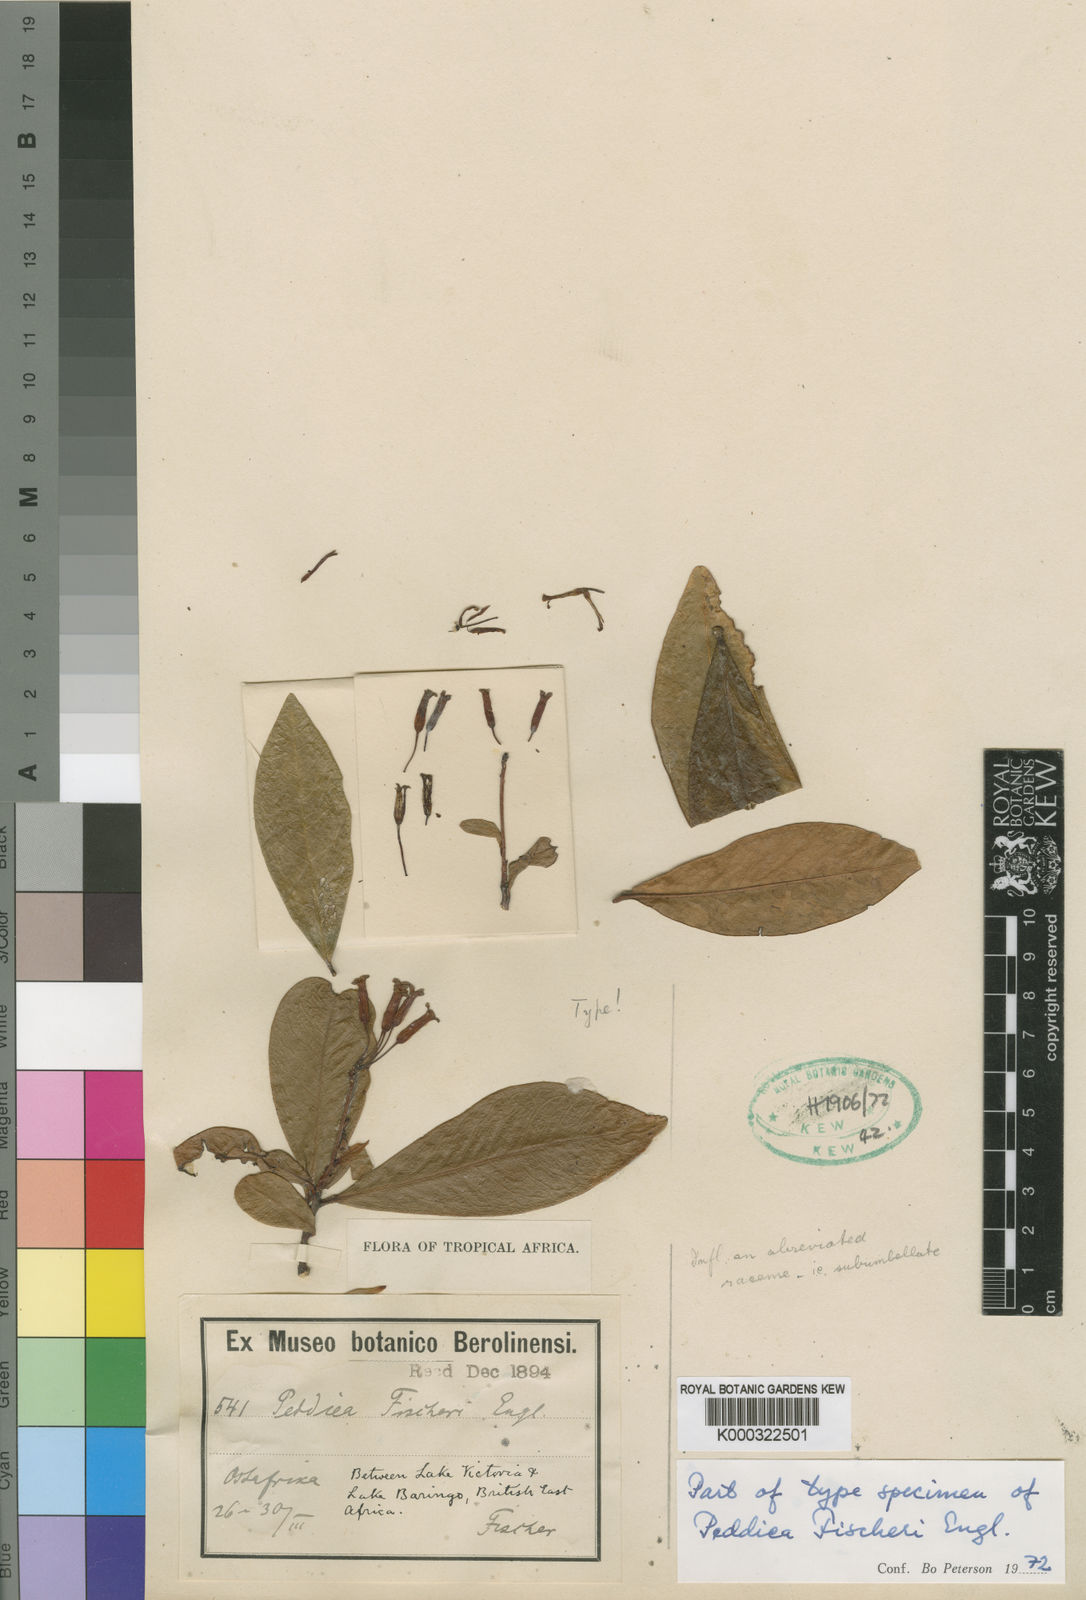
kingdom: Plantae
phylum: Tracheophyta
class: Magnoliopsida
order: Malvales
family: Thymelaeaceae
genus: Peddiea
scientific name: Peddiea fischeri
